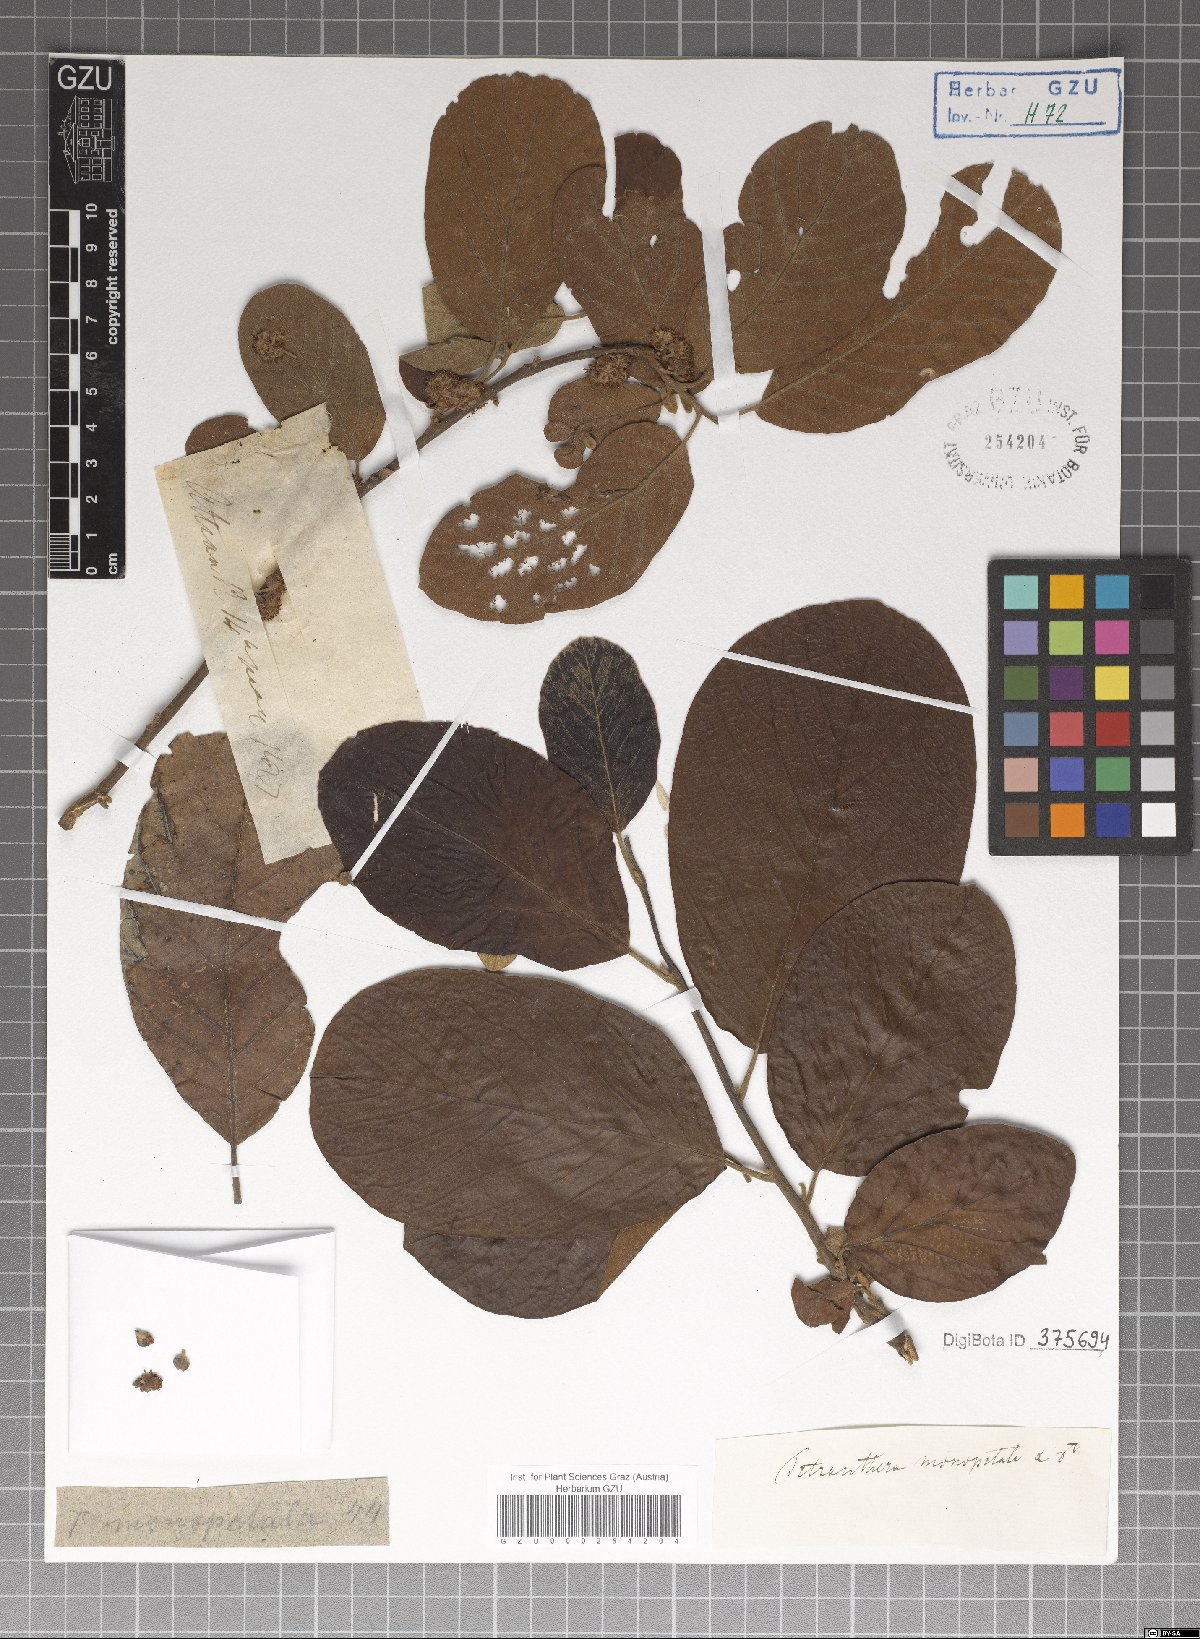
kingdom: Plantae
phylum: Tracheophyta
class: Magnoliopsida
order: Laurales
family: Lauraceae
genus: Litsea
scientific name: Litsea monopetala
